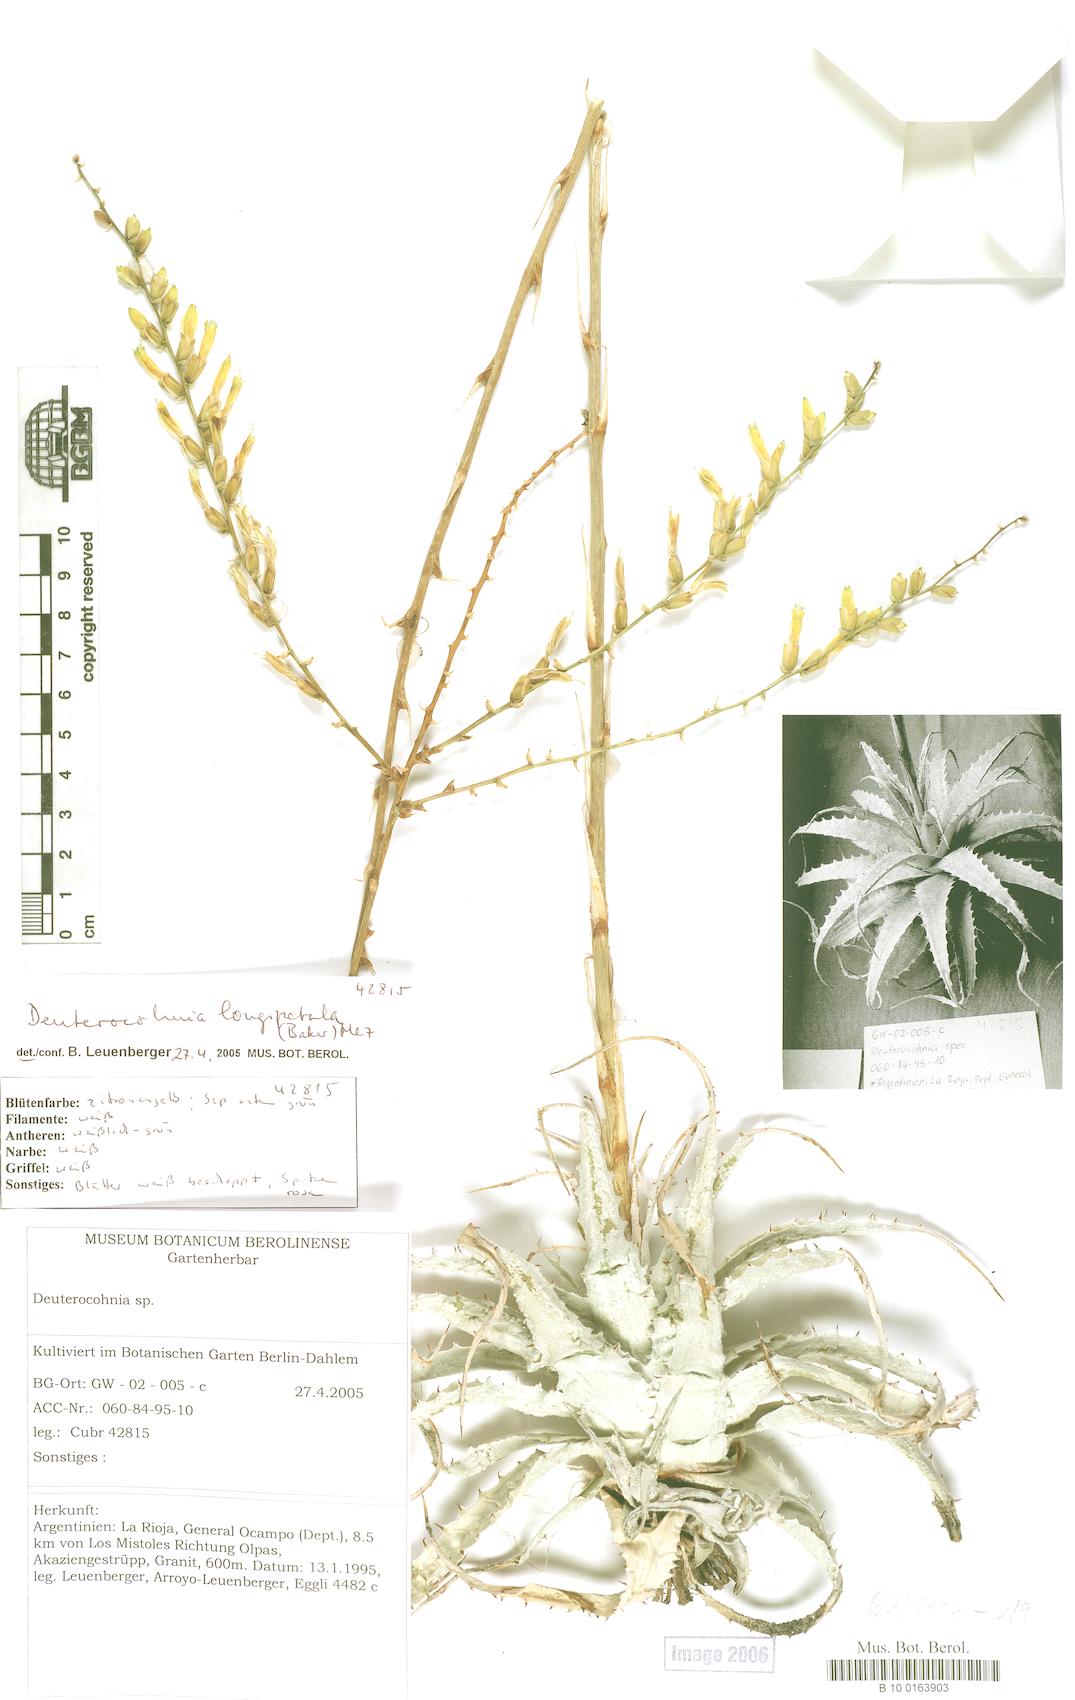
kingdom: Plantae
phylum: Tracheophyta
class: Liliopsida
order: Poales
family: Bromeliaceae
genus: Deuterocohnia
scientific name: Deuterocohnia longipetala
